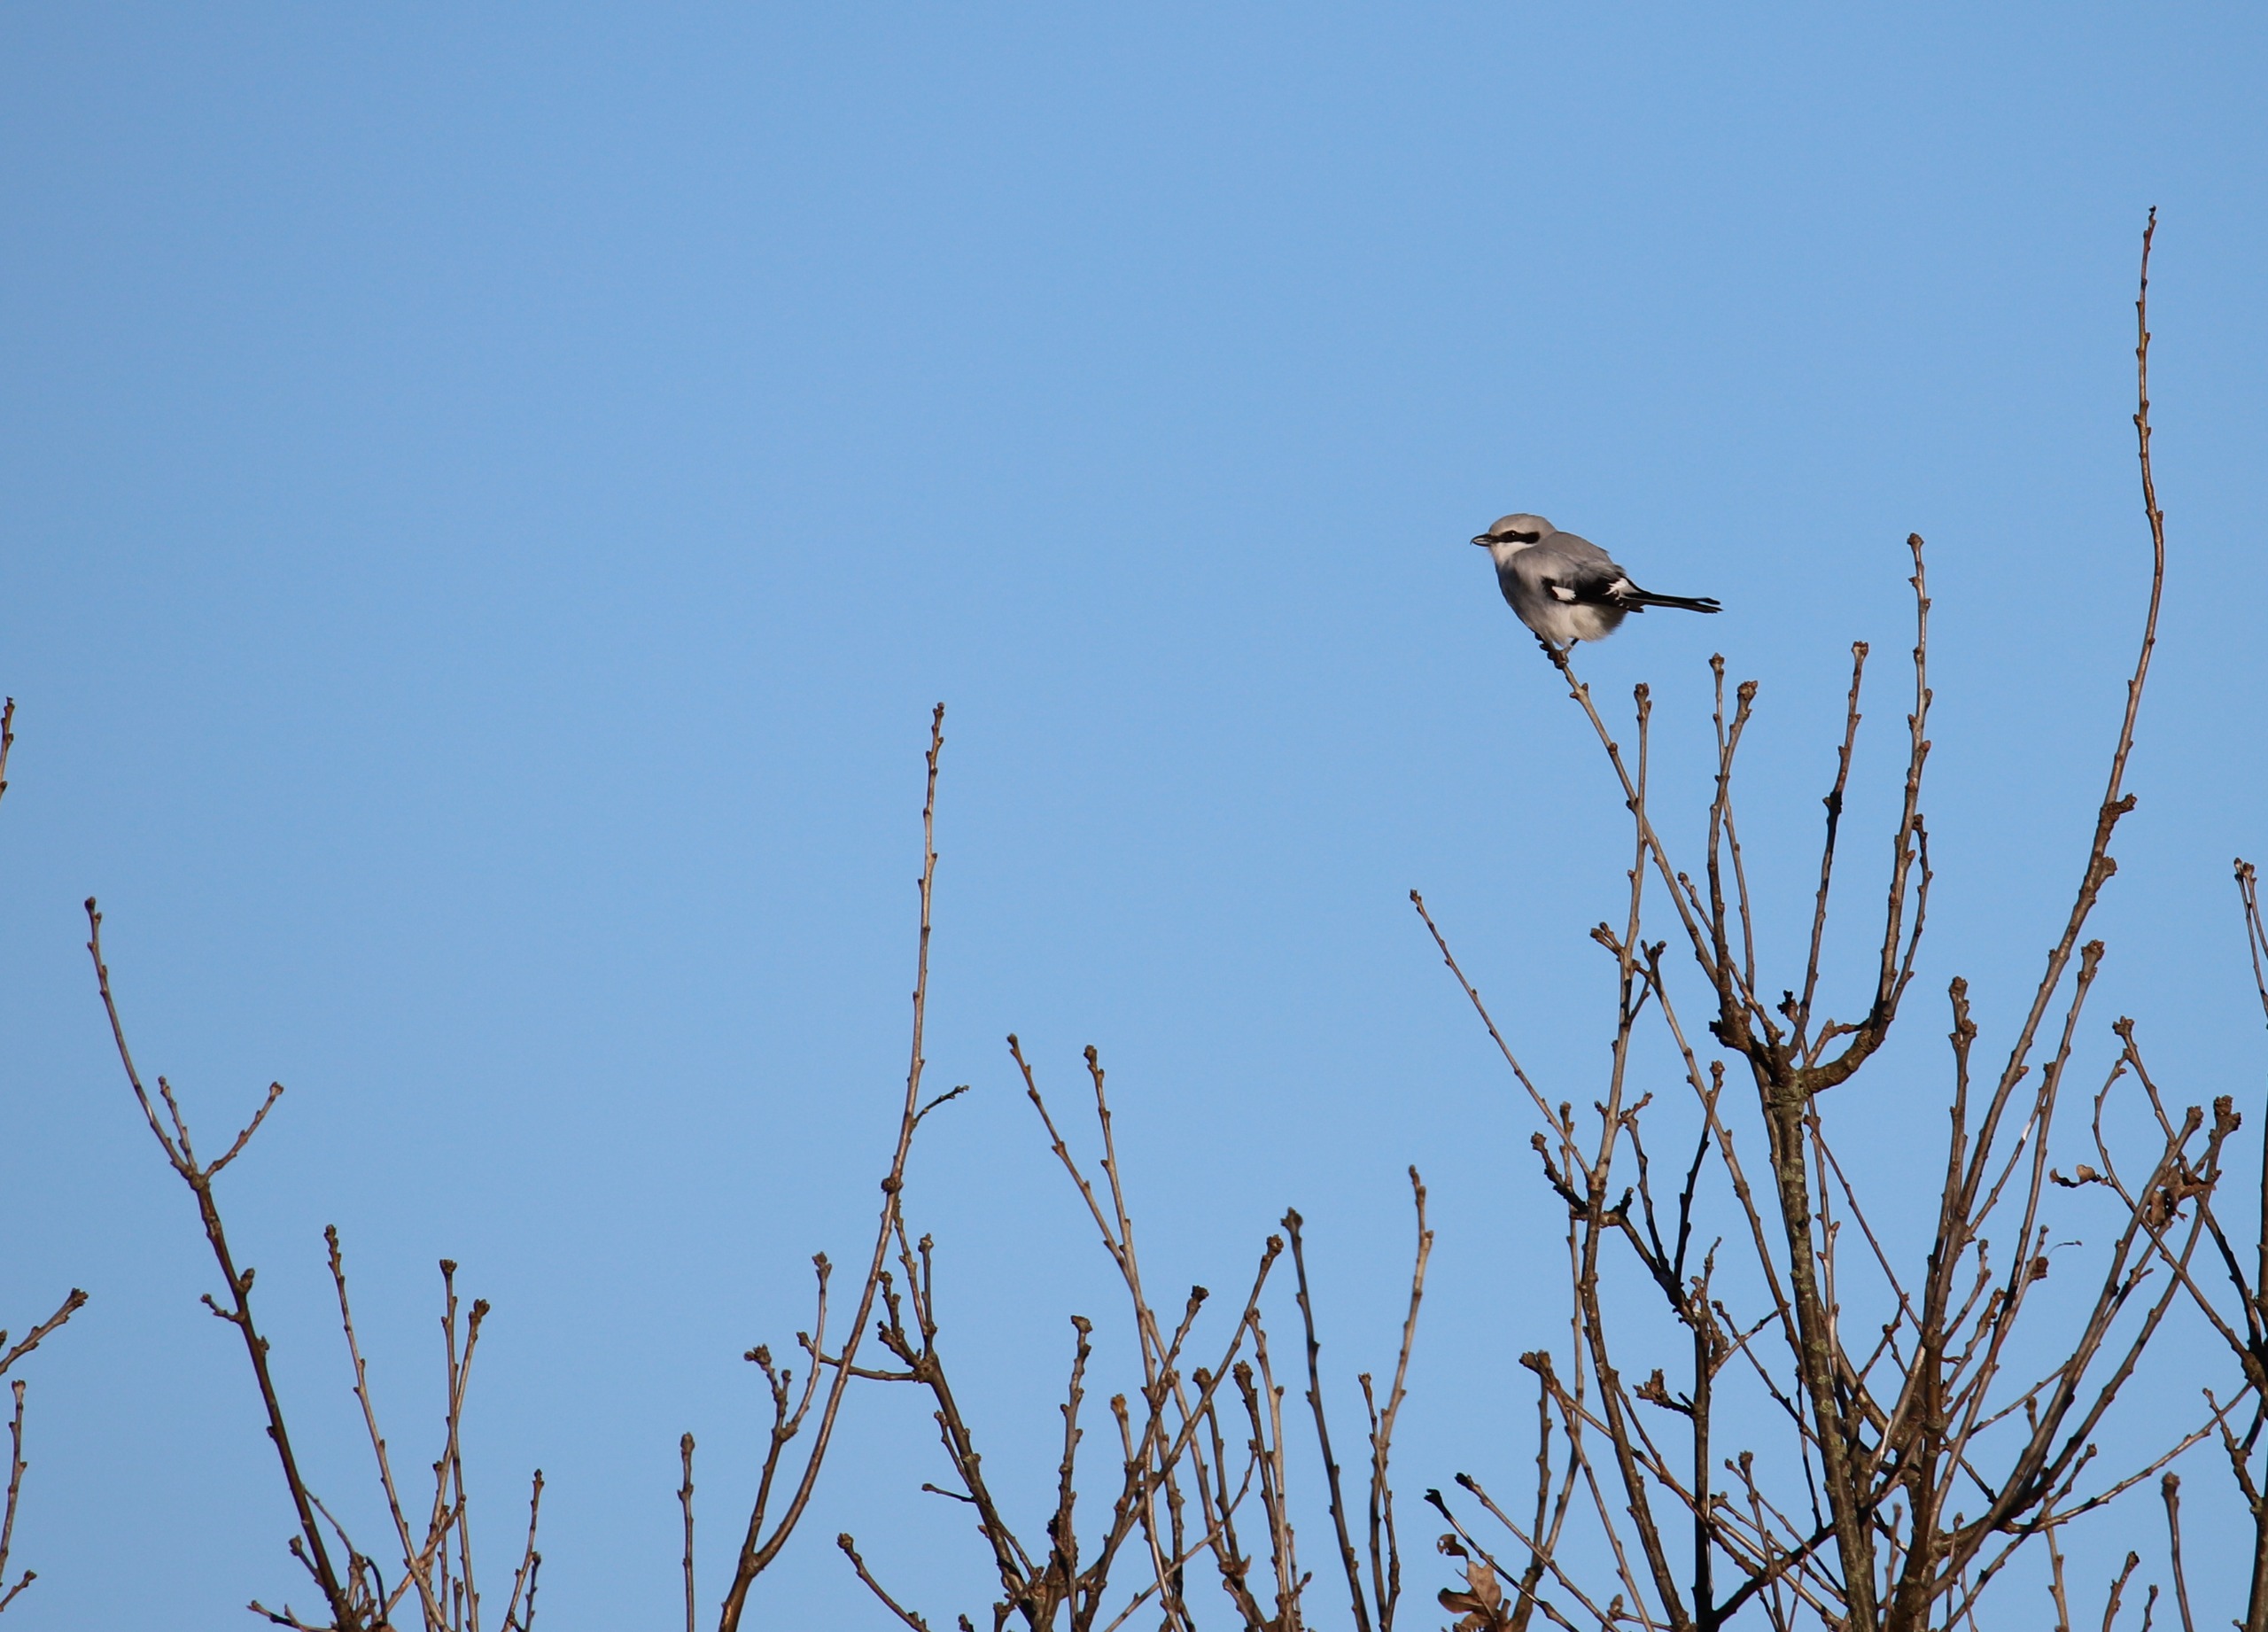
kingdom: Animalia
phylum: Chordata
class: Aves
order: Passeriformes
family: Laniidae
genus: Lanius
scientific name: Lanius excubitor
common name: Stor tornskade
